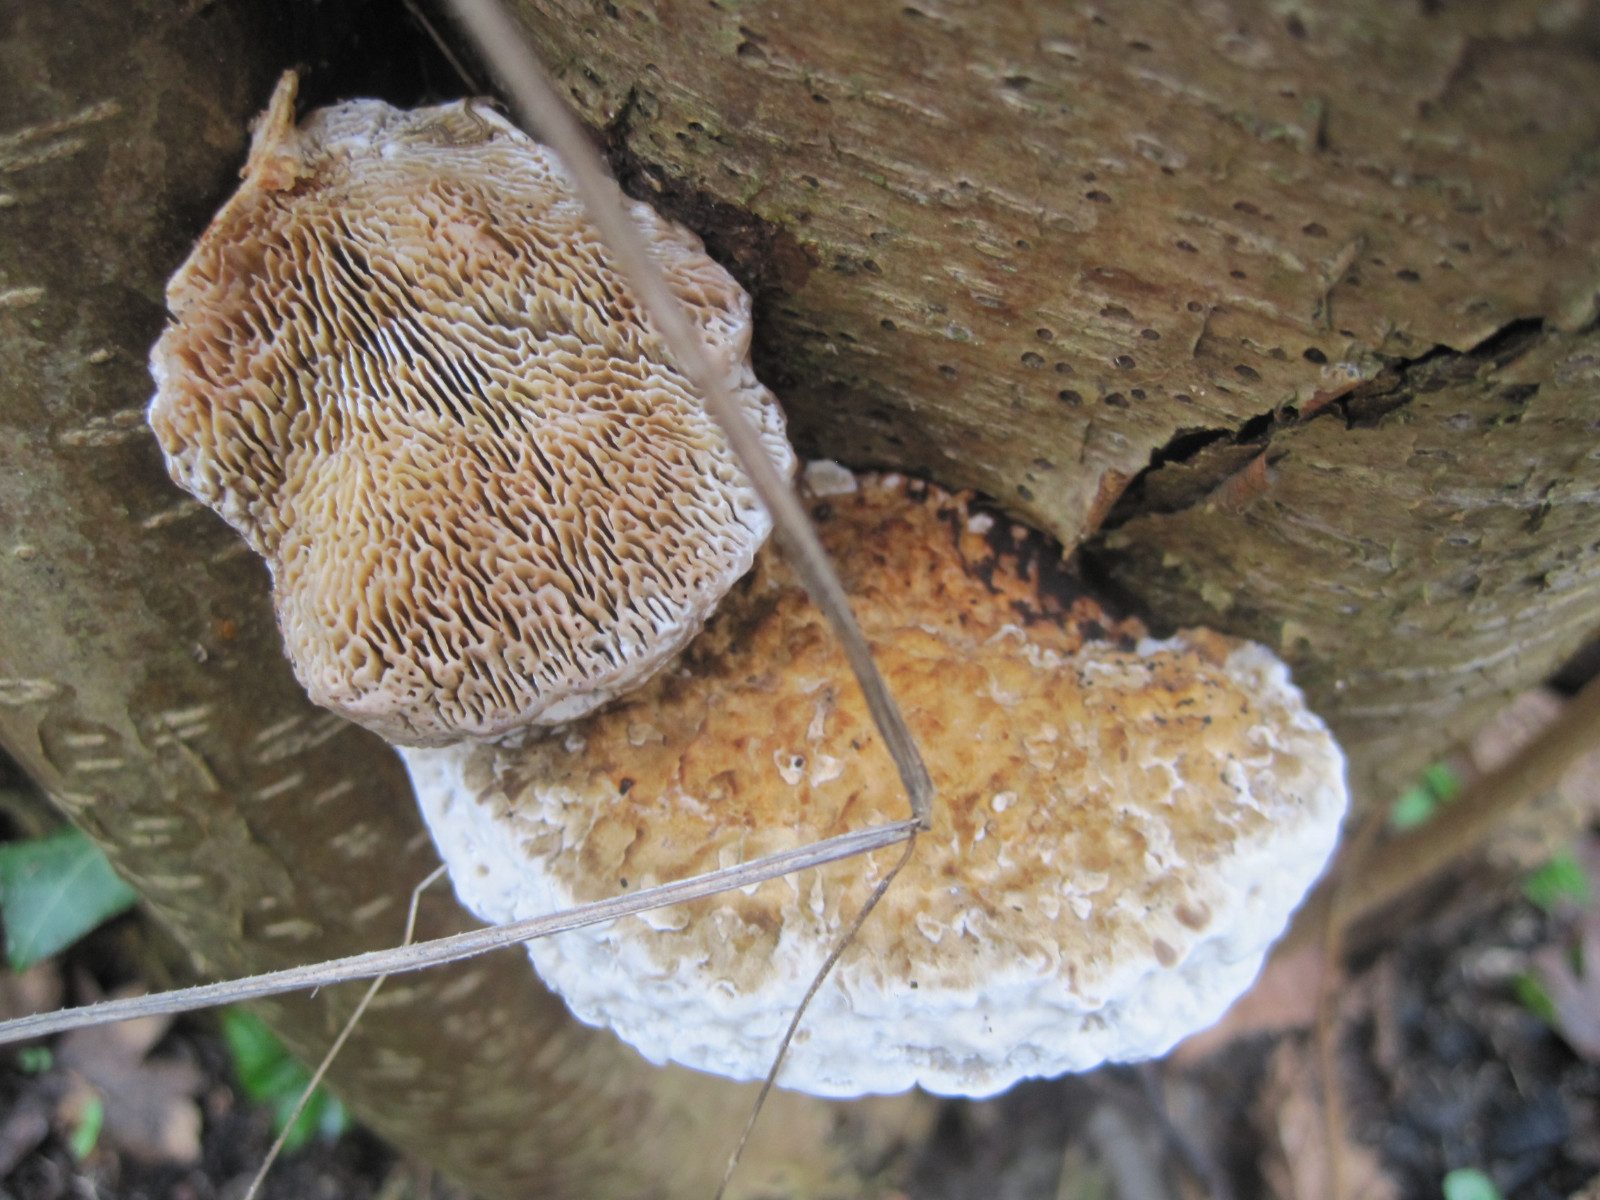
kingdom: Fungi
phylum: Basidiomycota
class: Agaricomycetes
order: Polyporales
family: Polyporaceae
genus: Daedaleopsis
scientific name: Daedaleopsis confragosa
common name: rødmende læderporesvamp
